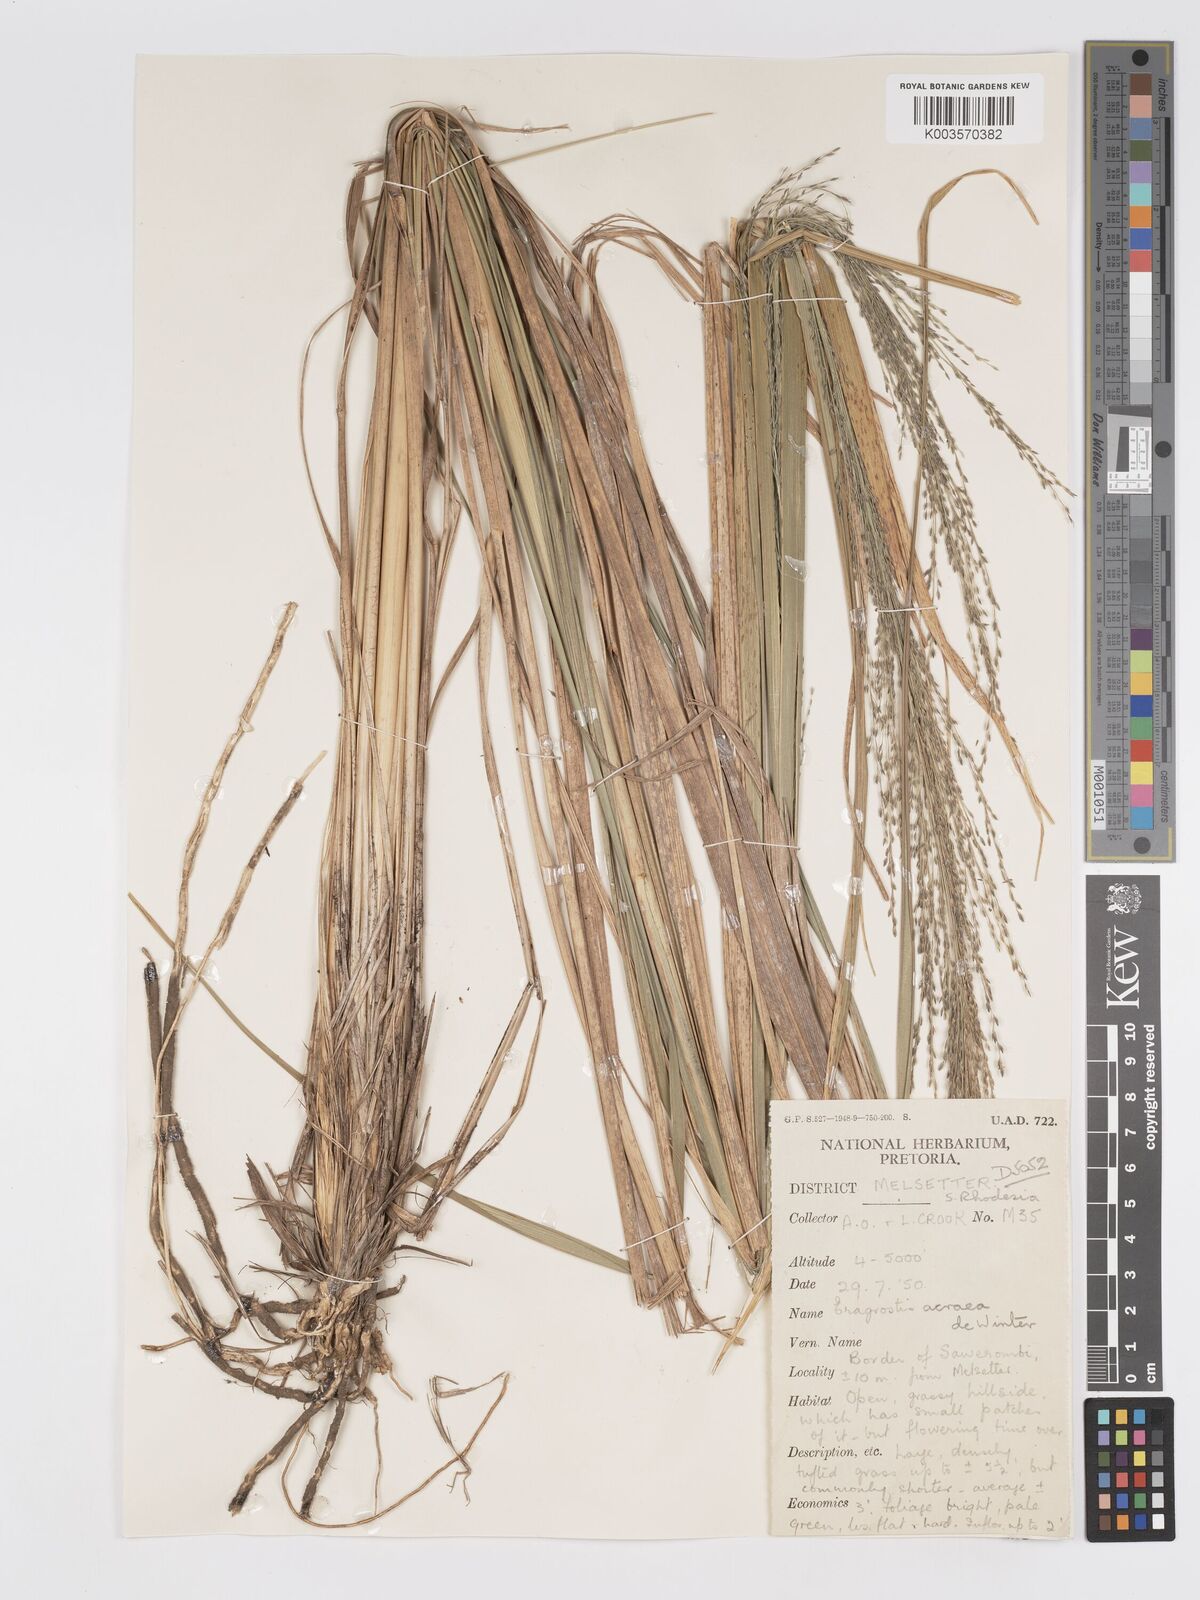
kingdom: Plantae
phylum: Tracheophyta
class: Liliopsida
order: Poales
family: Poaceae
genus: Eragrostis
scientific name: Eragrostis acraea
